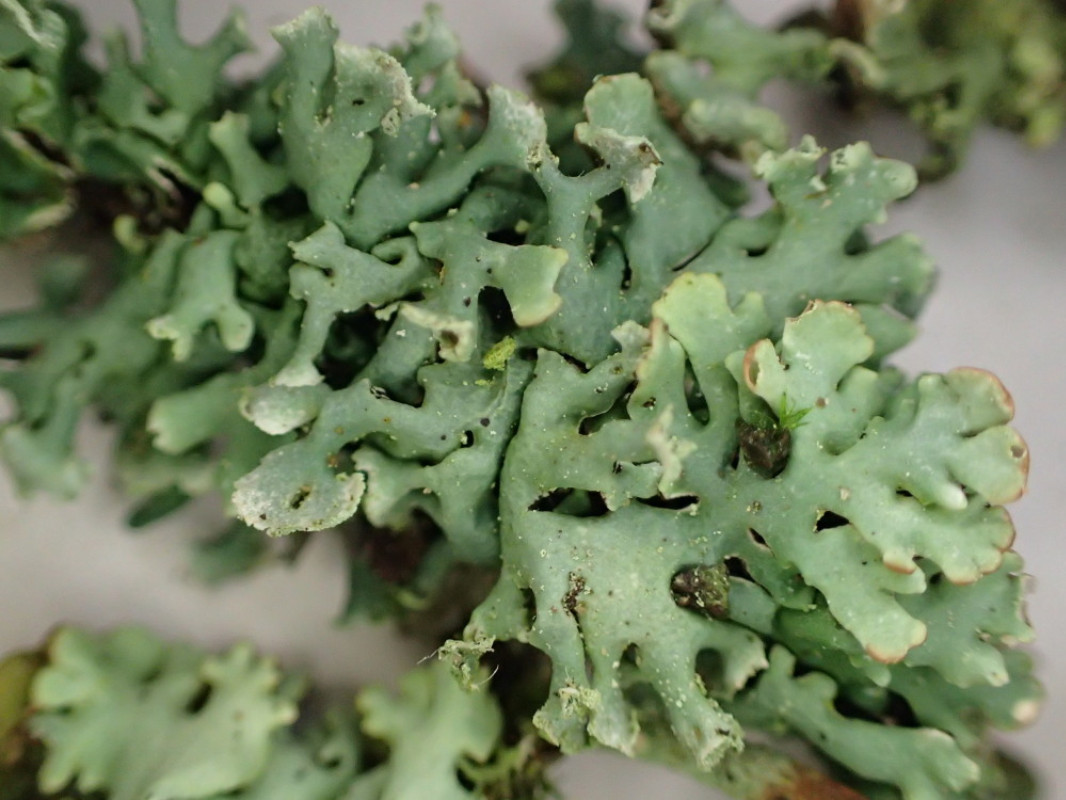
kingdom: Fungi
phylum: Ascomycota
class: Lecanoromycetes
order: Lecanorales
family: Parmeliaceae
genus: Hypogymnia
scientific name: Hypogymnia physodes
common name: almindelig kvistlav
